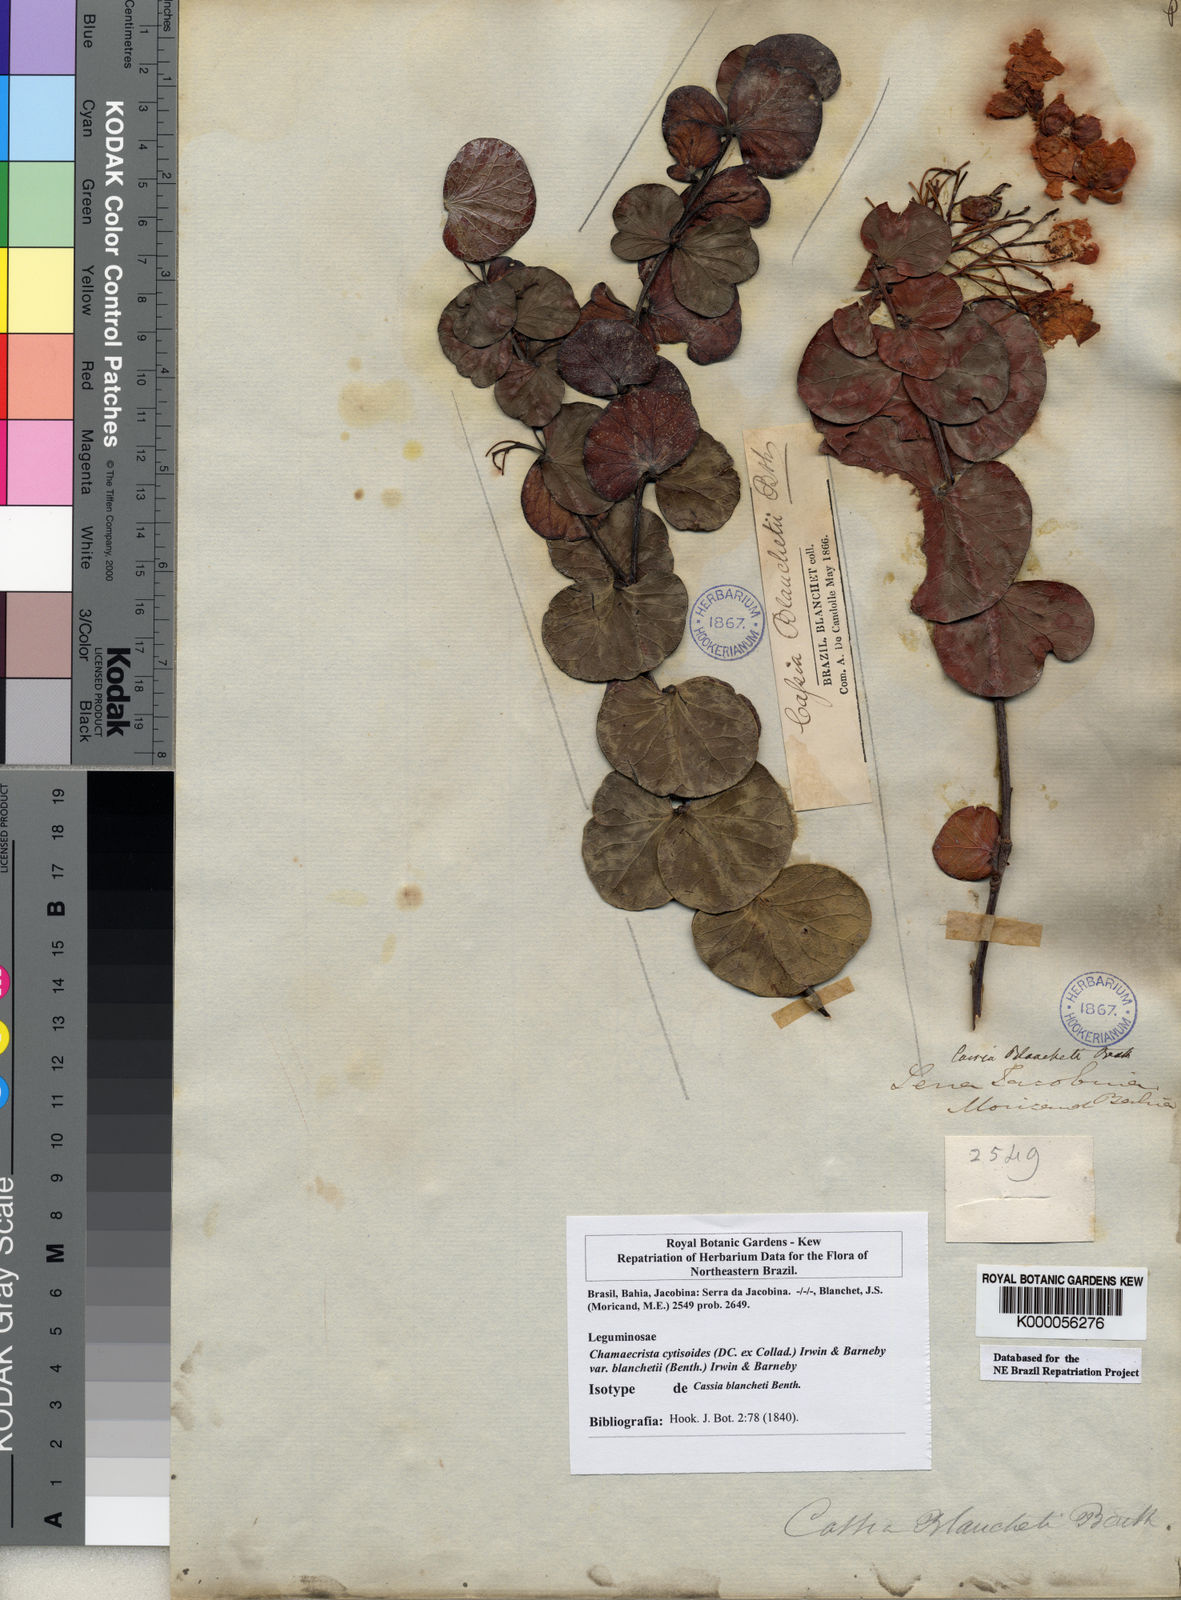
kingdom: Plantae
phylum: Tracheophyta
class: Magnoliopsida
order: Fabales
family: Fabaceae
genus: Chamaecrista
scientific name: Chamaecrista cytisoides
